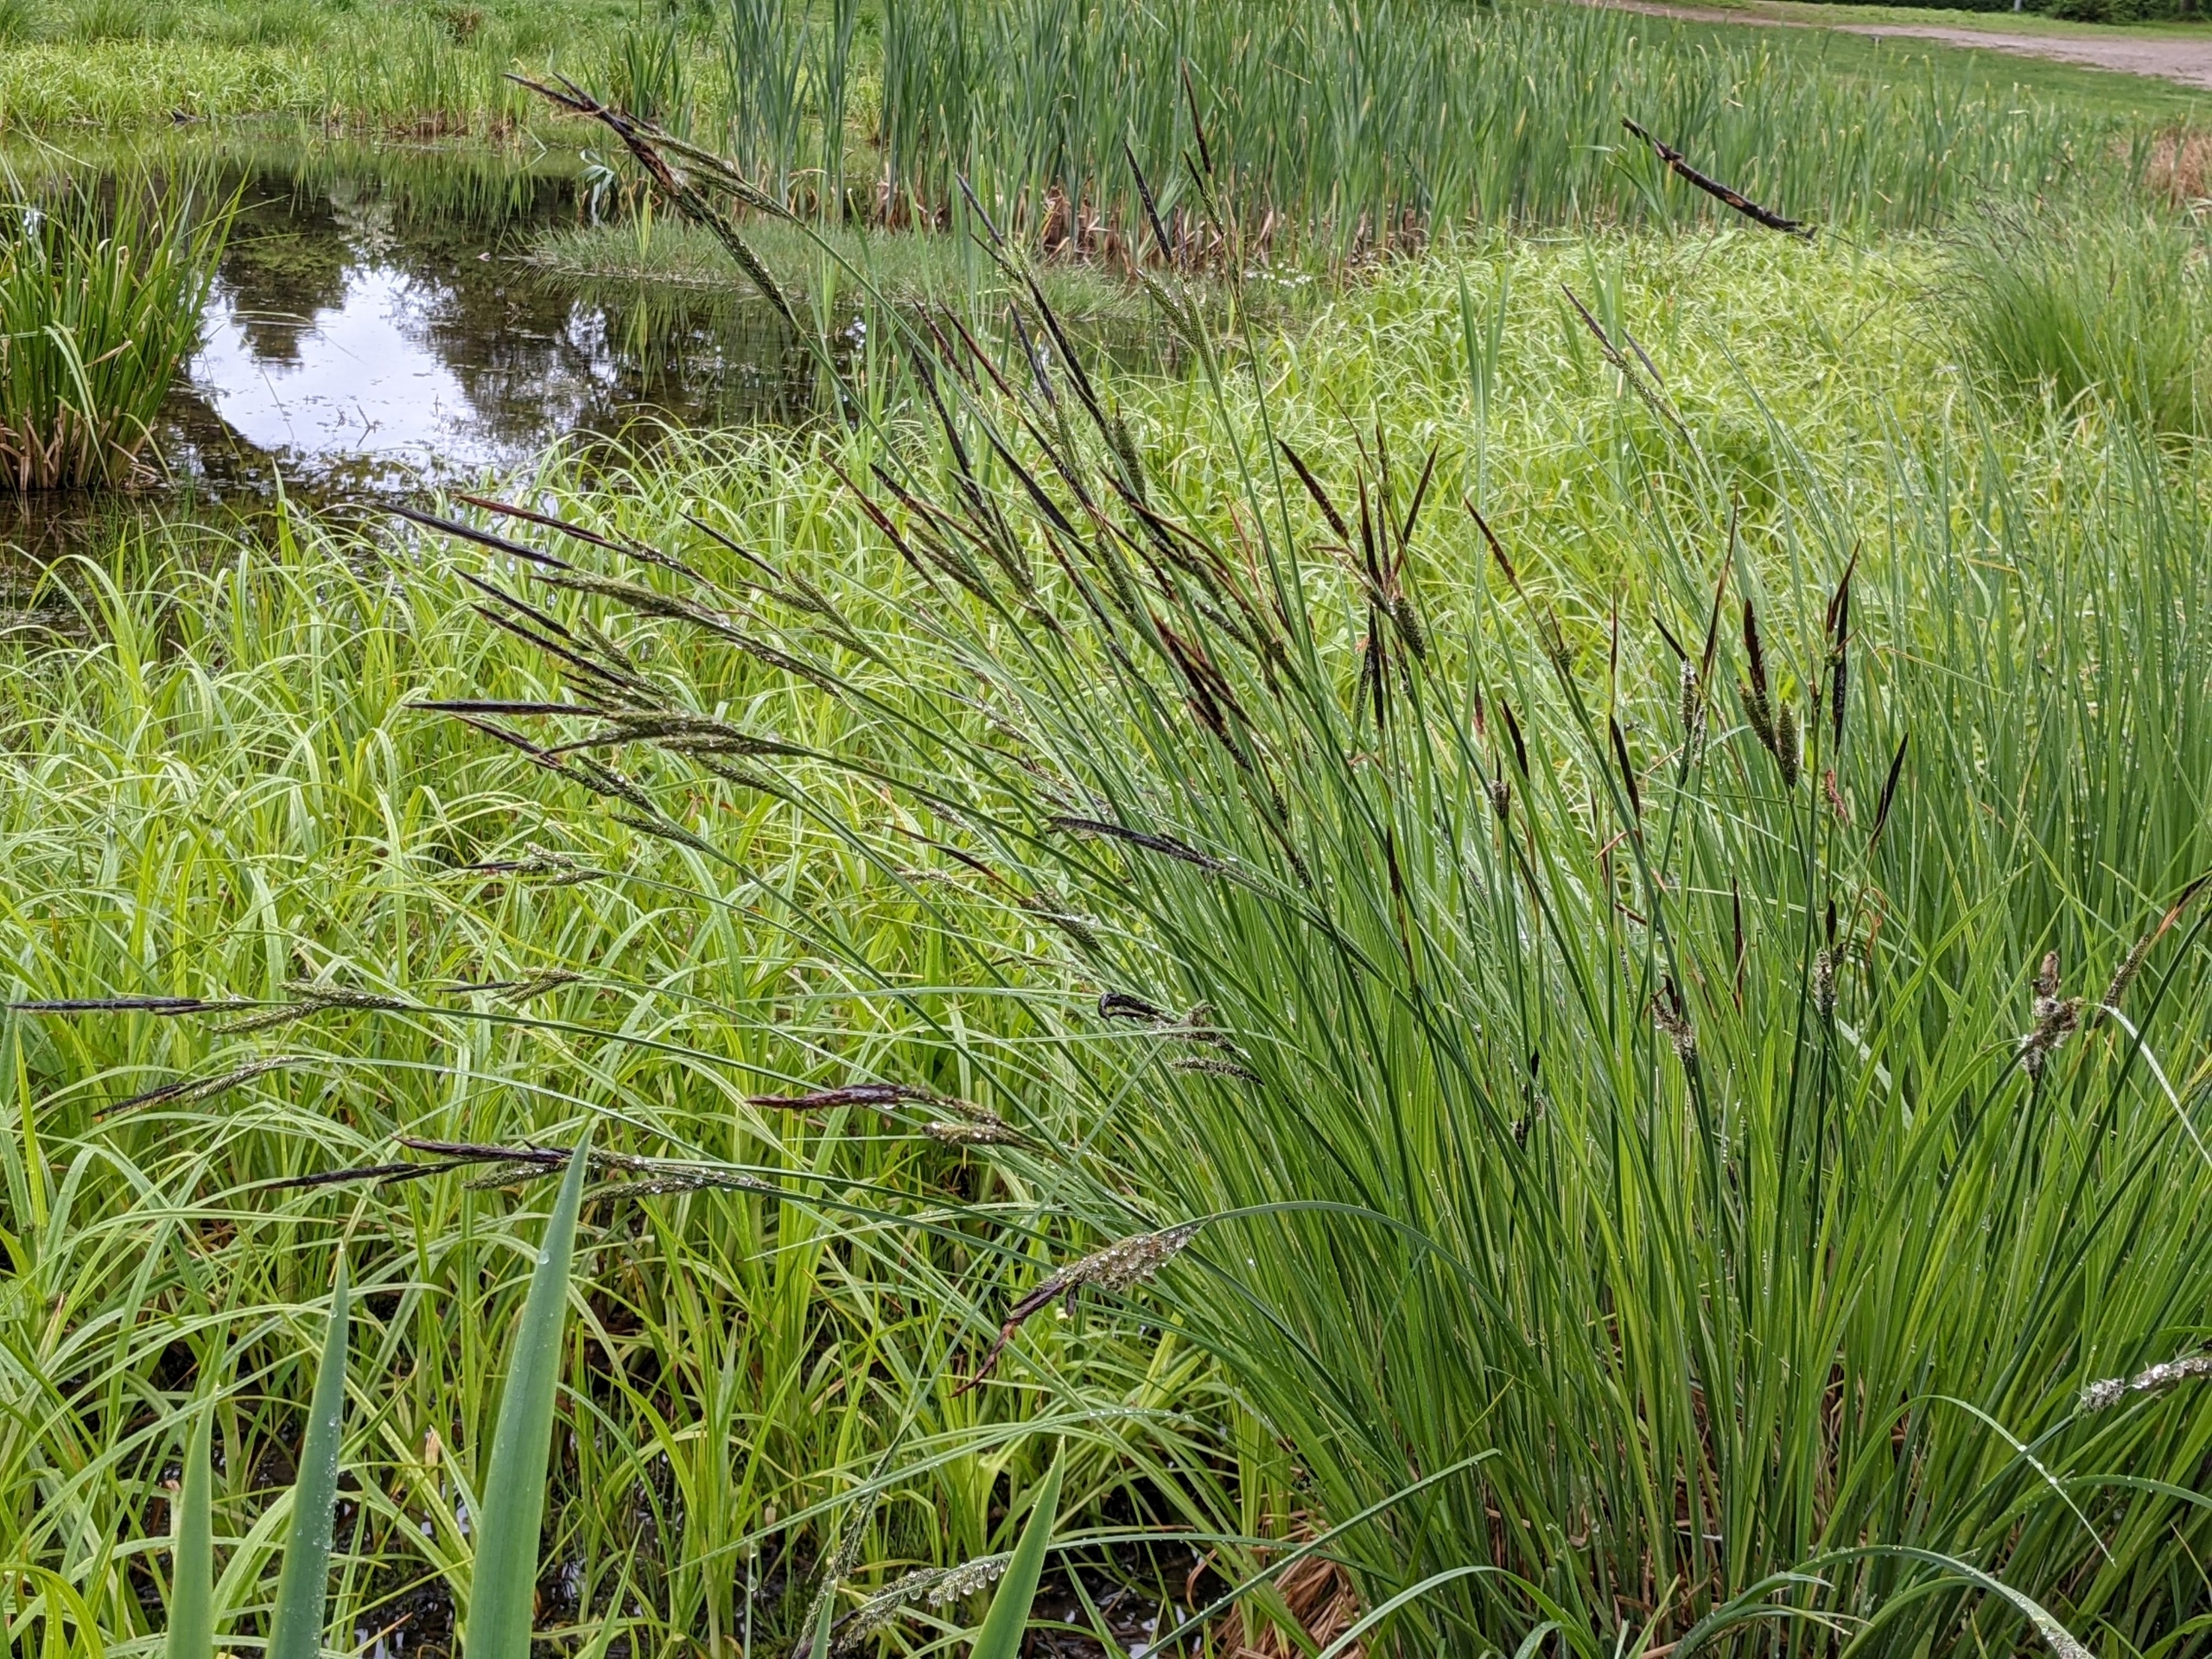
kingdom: Plantae
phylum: Tracheophyta
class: Liliopsida
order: Poales
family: Cyperaceae
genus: Carex
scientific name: Carex elata
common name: Stiv star
